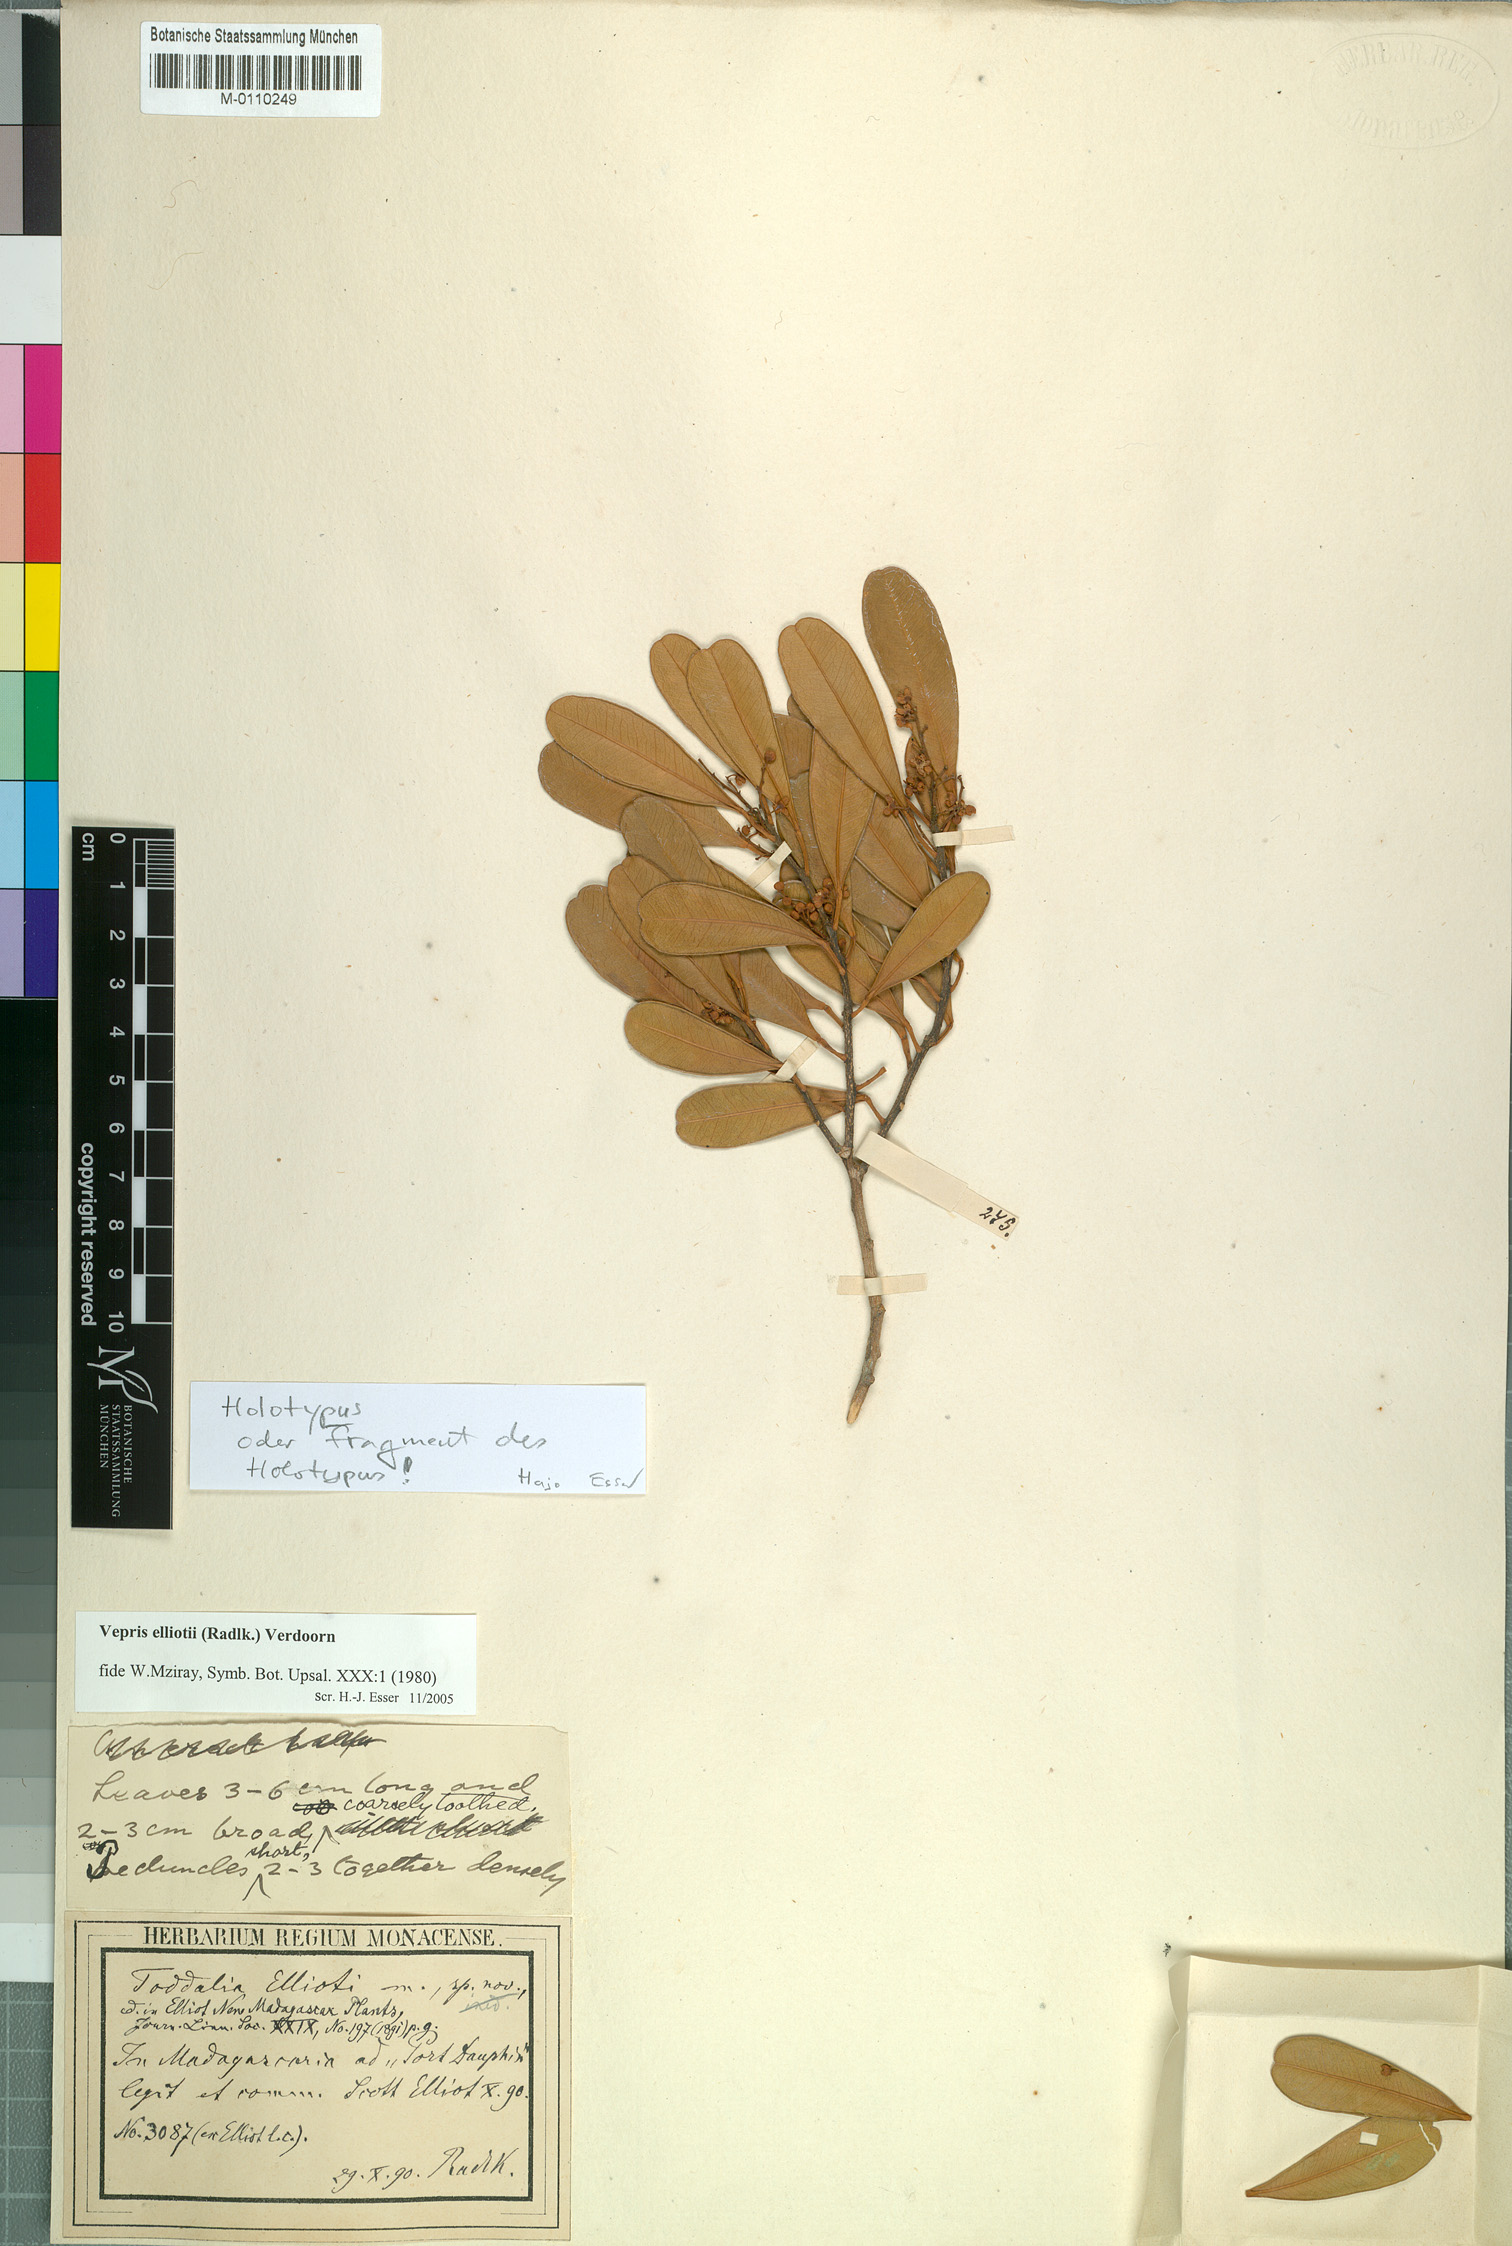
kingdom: Plantae
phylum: Tracheophyta
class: Magnoliopsida
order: Sapindales
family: Rutaceae
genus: Vepris
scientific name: Vepris elliotii
